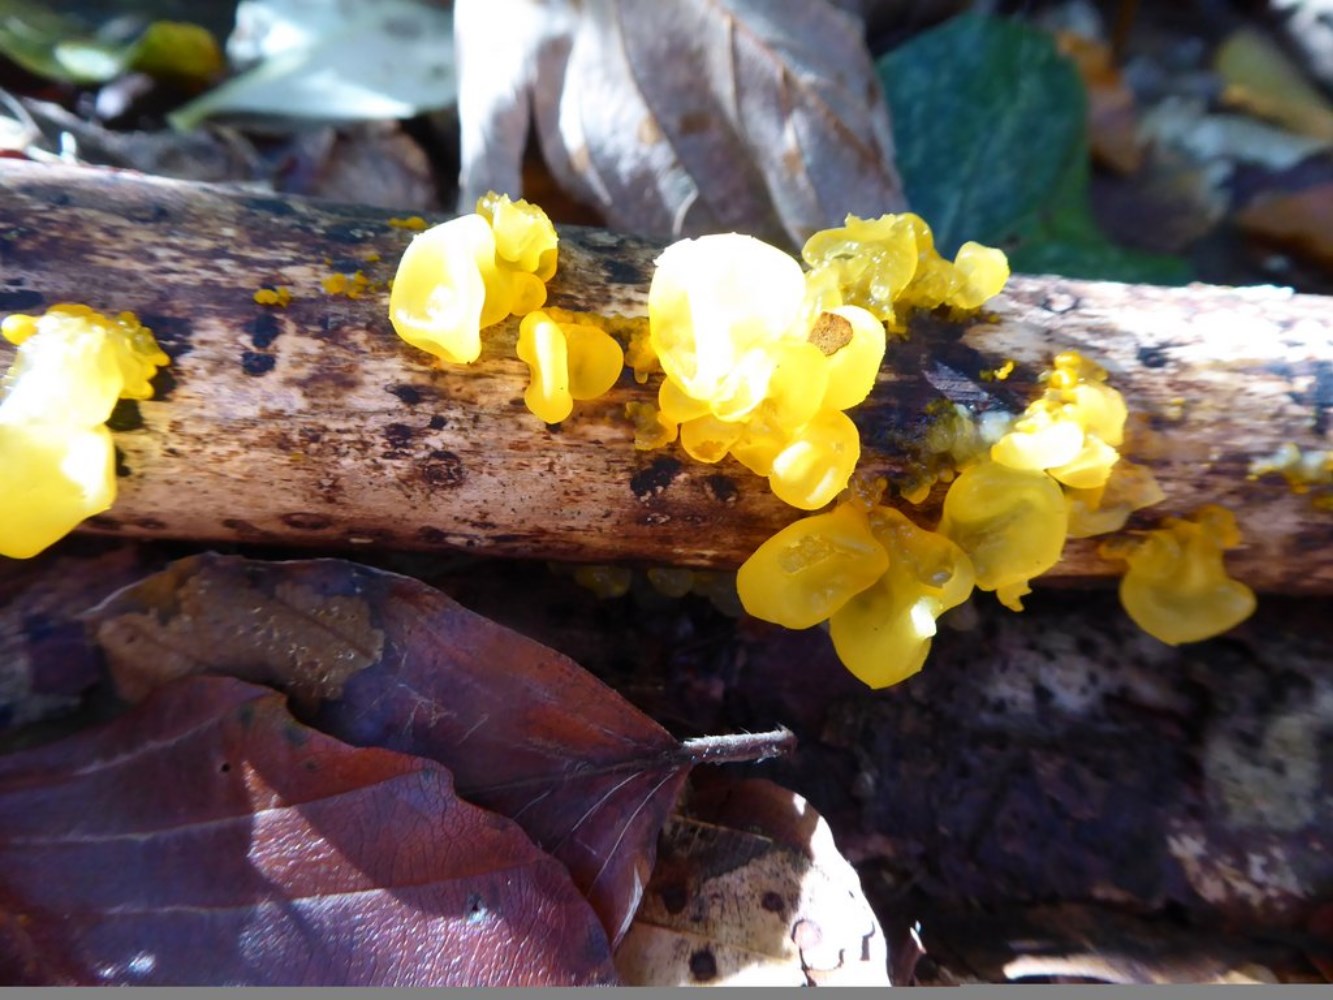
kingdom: Fungi
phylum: Basidiomycota
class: Tremellomycetes
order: Tremellales
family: Tremellaceae
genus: Tremella
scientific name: Tremella mesenterica
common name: gul bævresvamp
